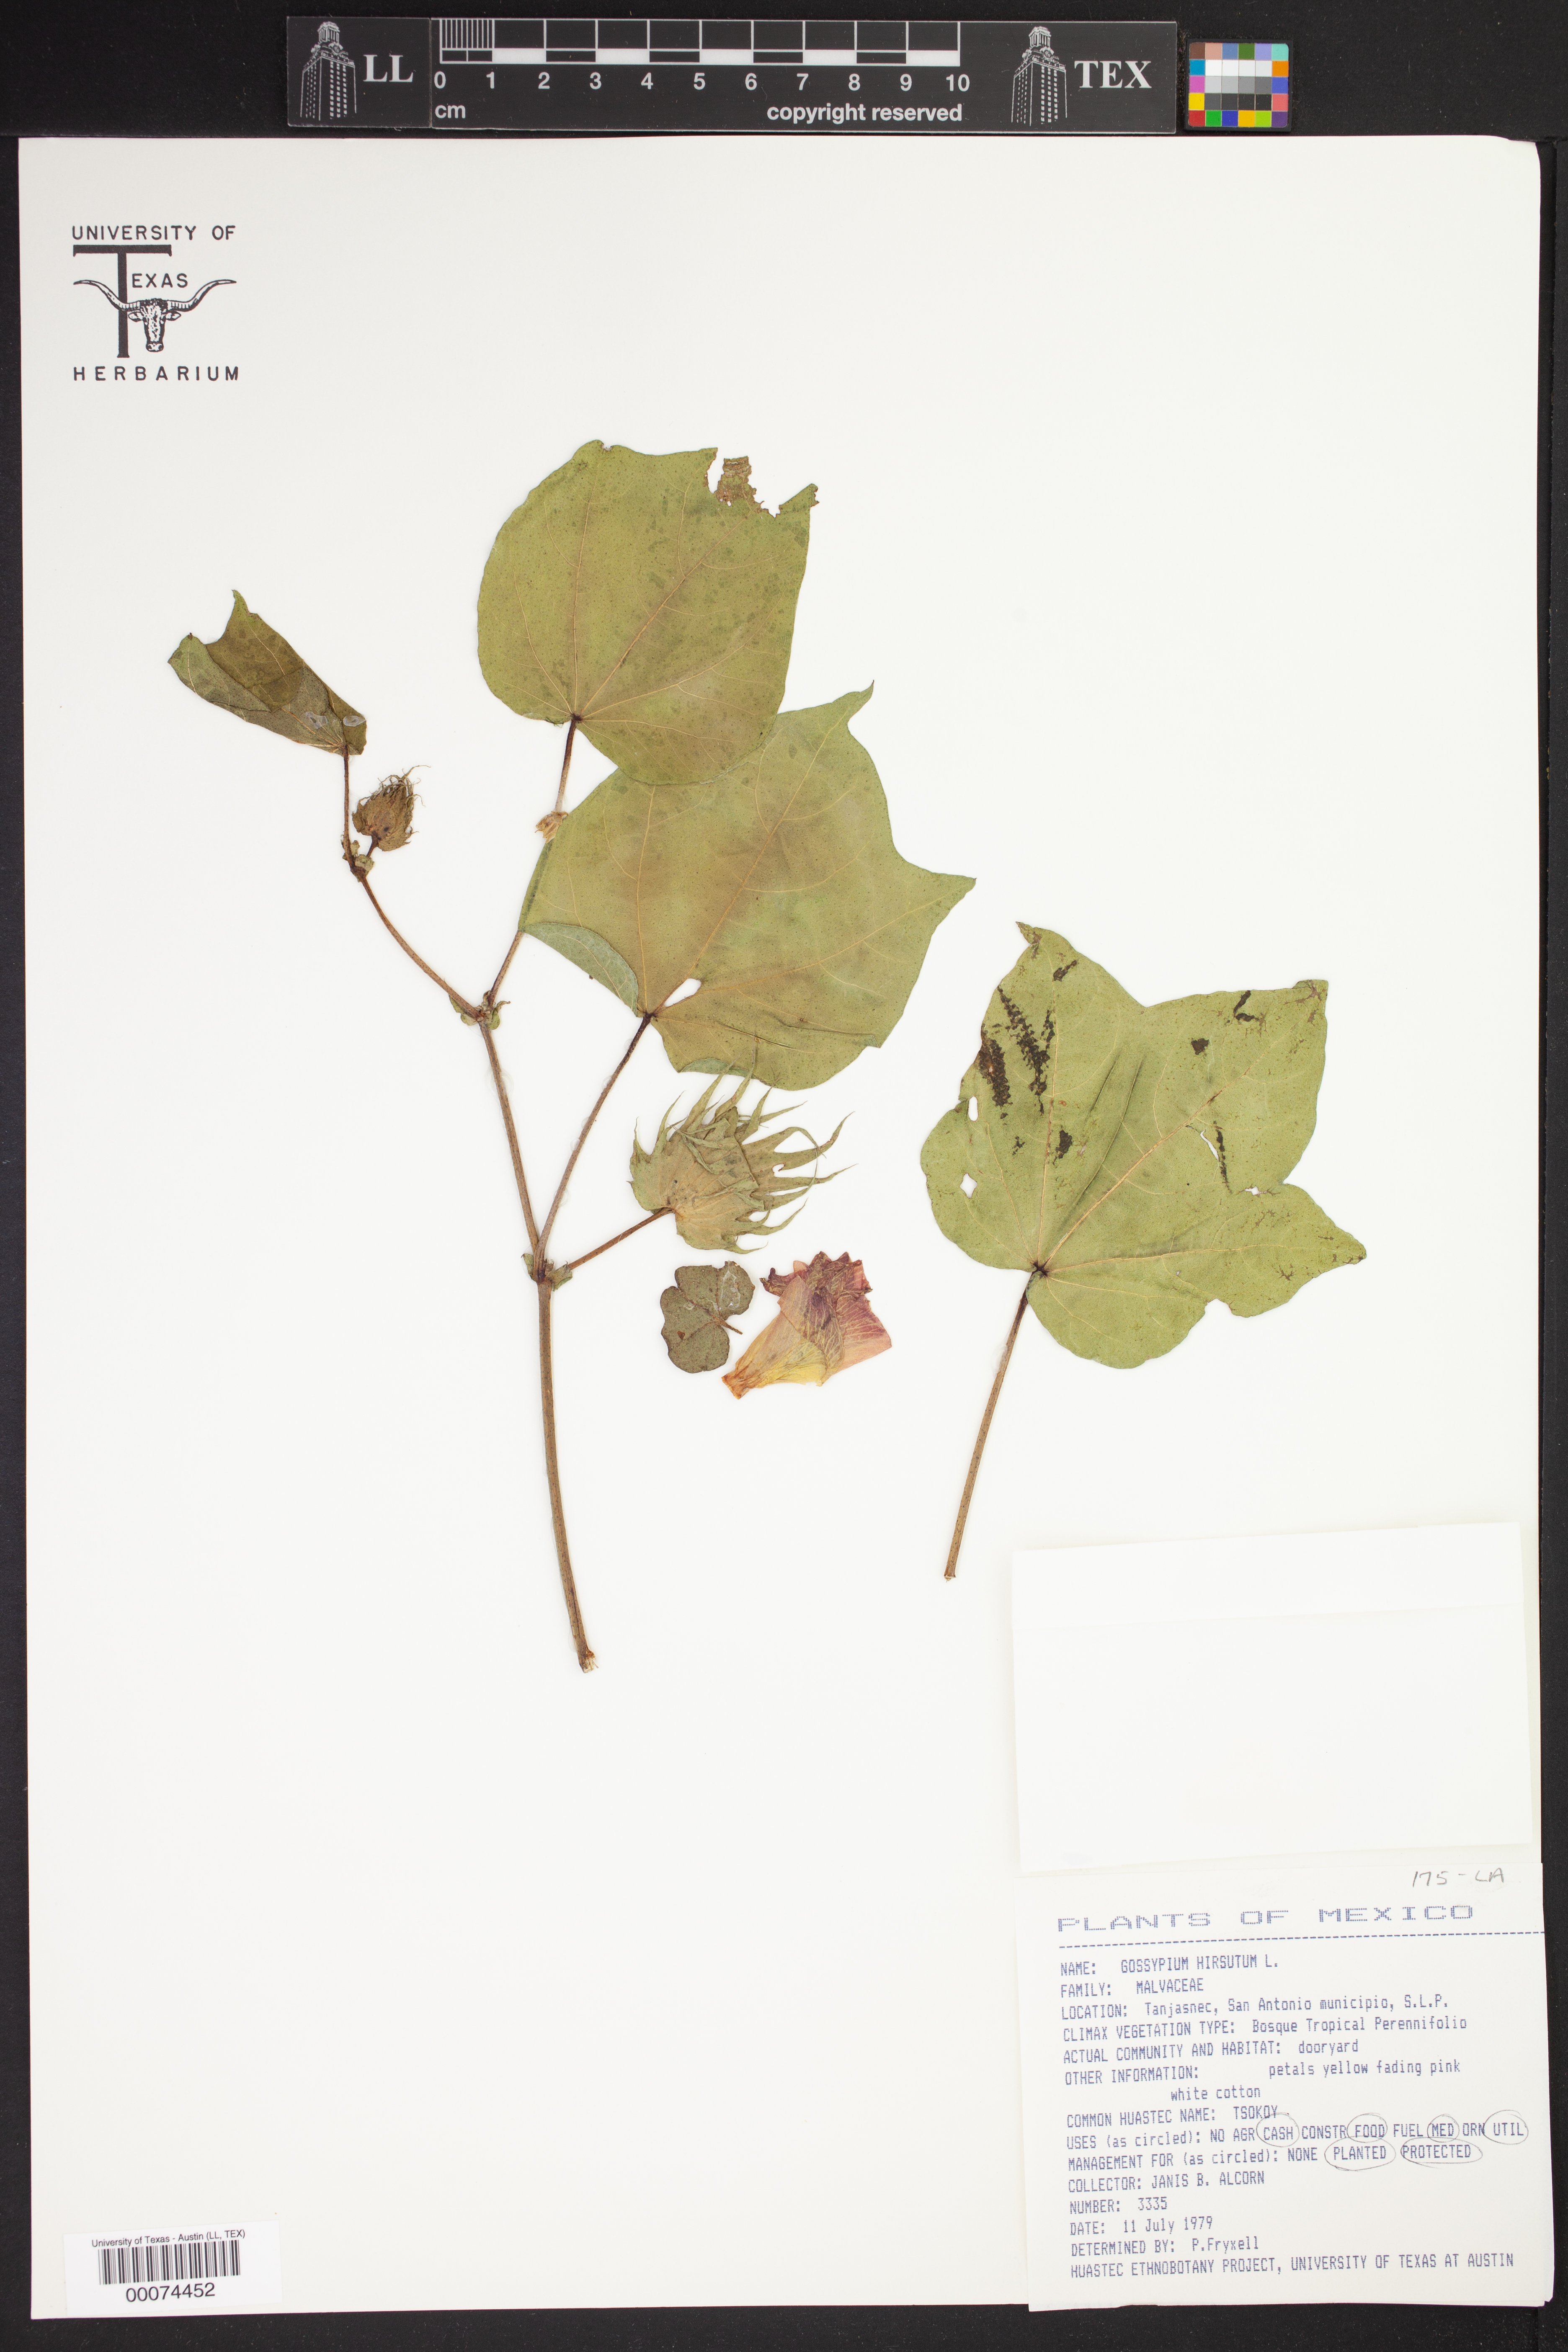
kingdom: Plantae
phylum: Tracheophyta
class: Magnoliopsida
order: Malvales
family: Malvaceae
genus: Gossypium
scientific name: Gossypium hirsutum
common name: Cotton
